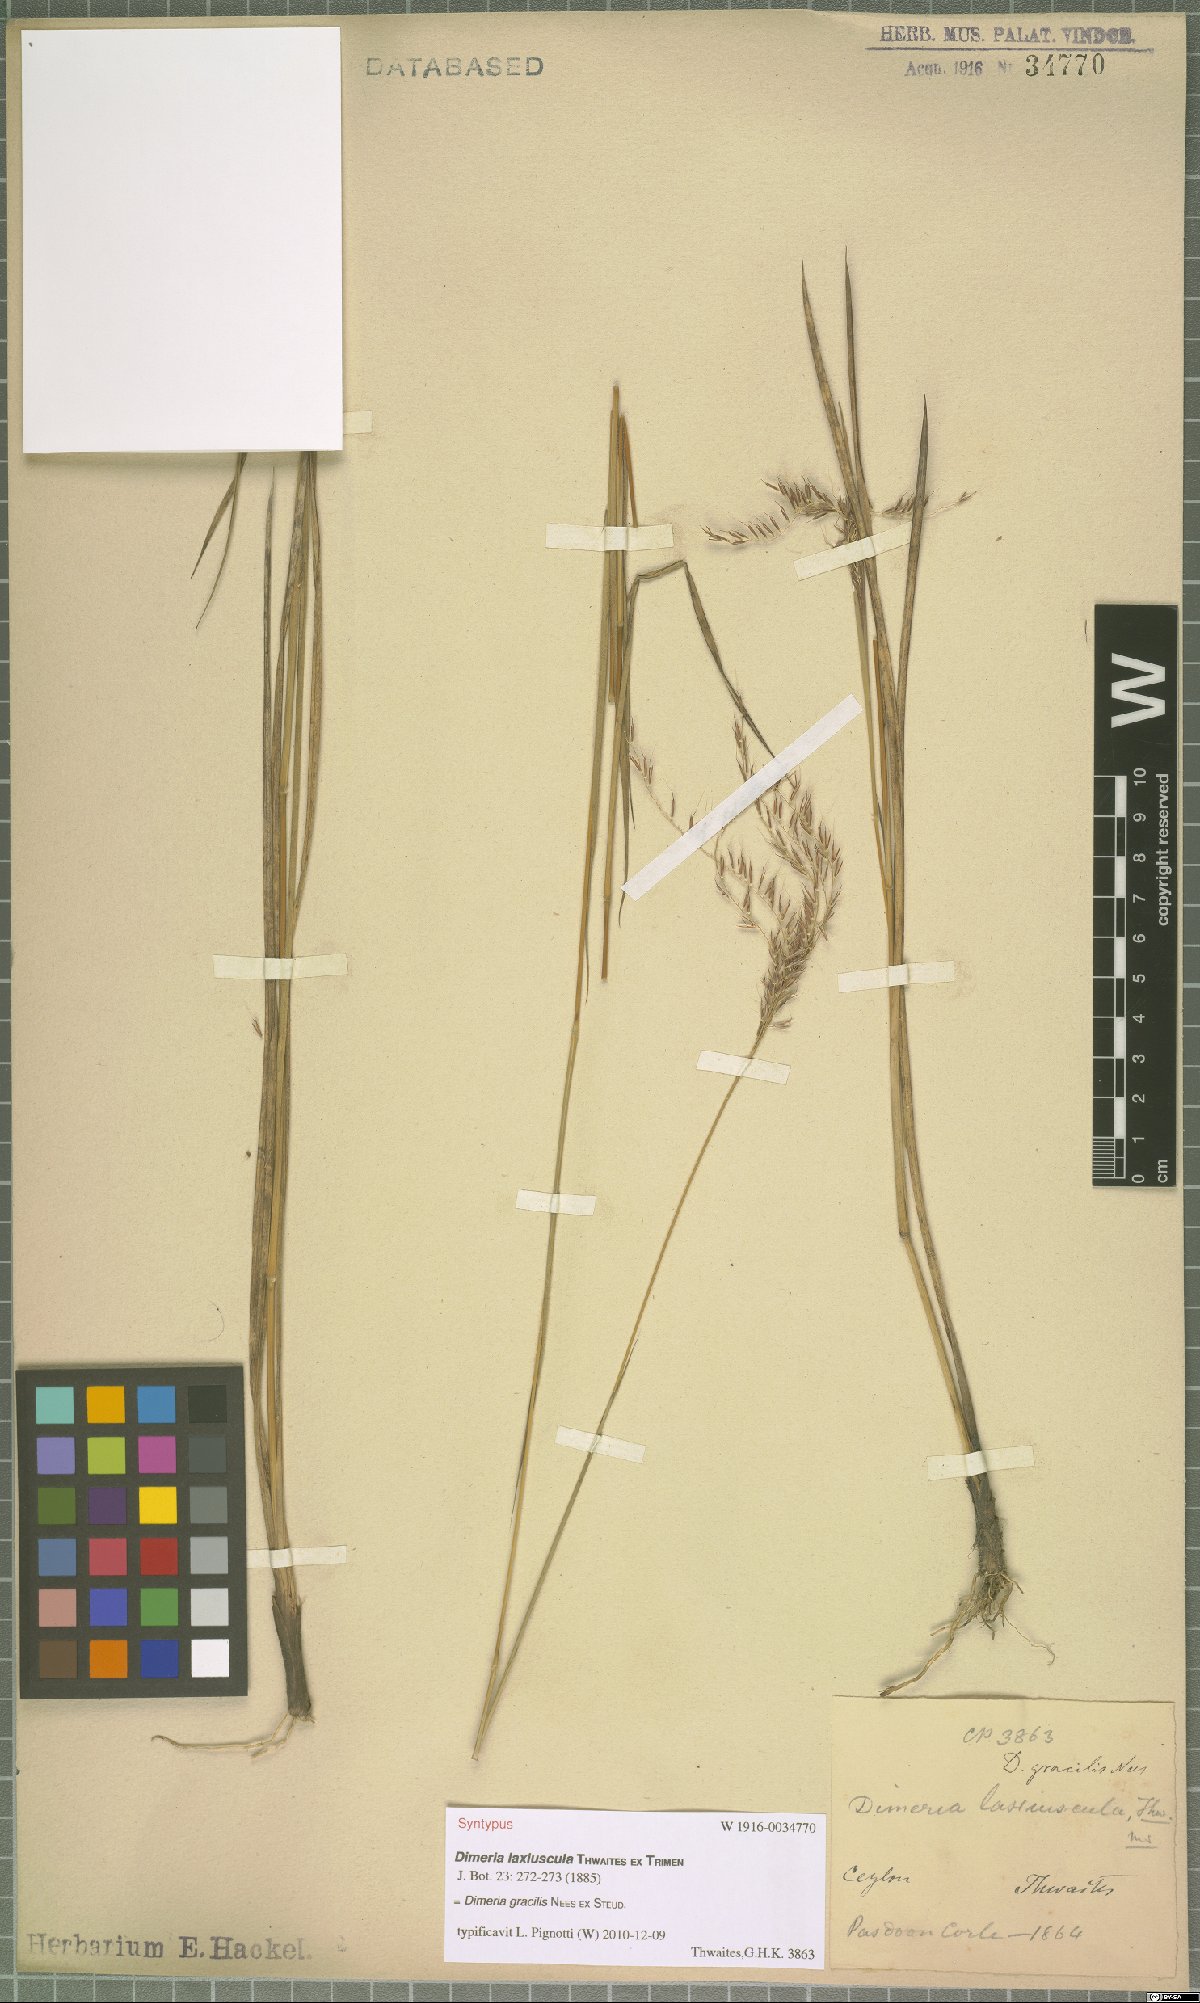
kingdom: Plantae
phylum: Tracheophyta
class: Liliopsida
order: Poales
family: Poaceae
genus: Dimeria
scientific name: Dimeria gracilis
